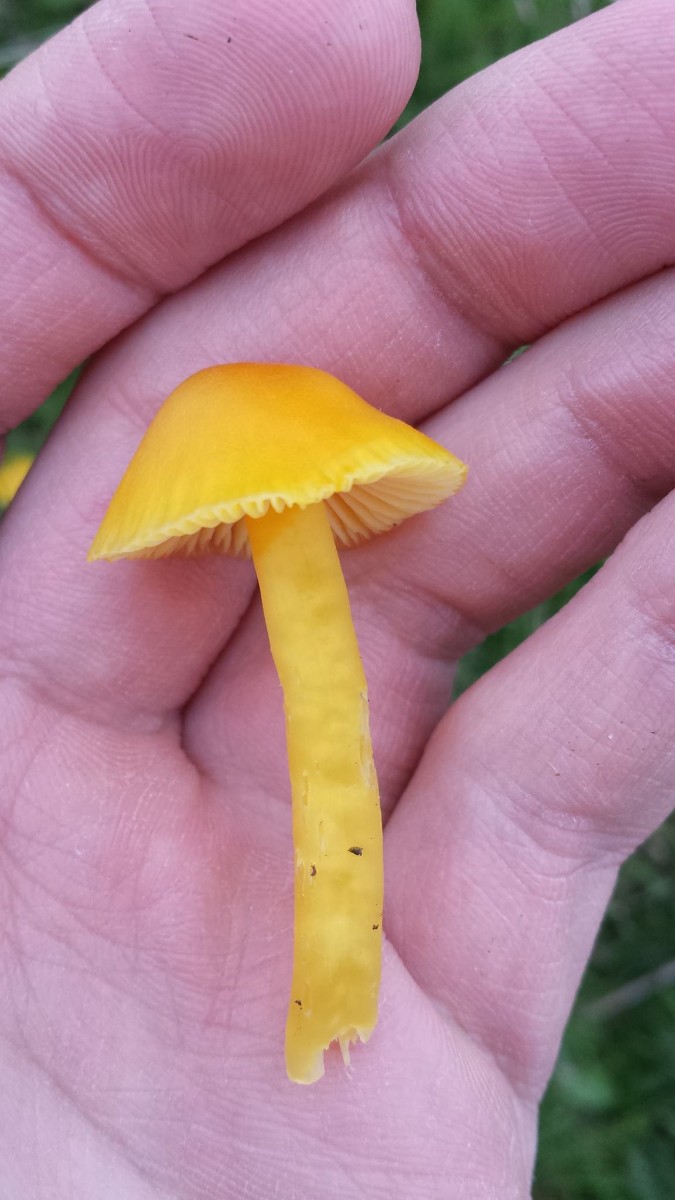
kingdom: Fungi
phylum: Basidiomycota
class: Agaricomycetes
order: Agaricales
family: Hygrophoraceae
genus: Hygrocybe
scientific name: Hygrocybe ceracea
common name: voksgul vokshat
